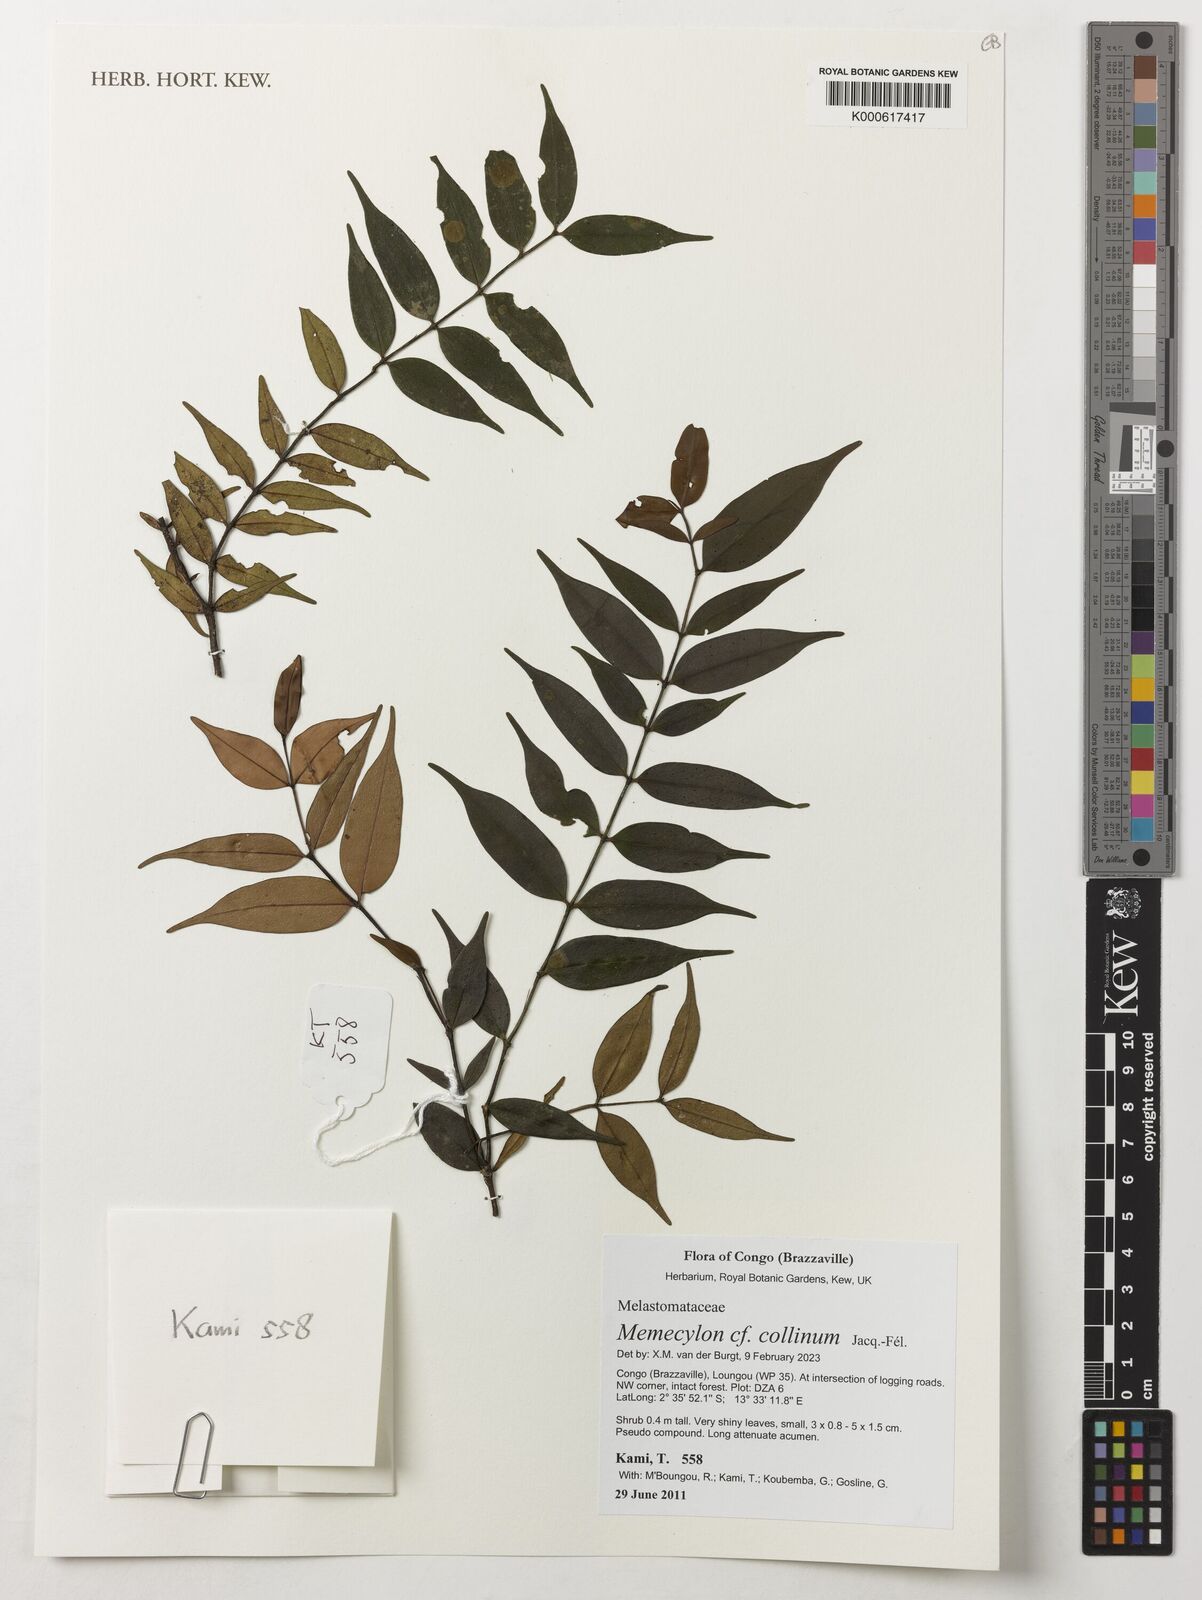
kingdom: Plantae
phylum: Tracheophyta
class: Magnoliopsida
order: Myrtales
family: Melastomataceae
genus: Memecylon
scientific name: Memecylon collinum
